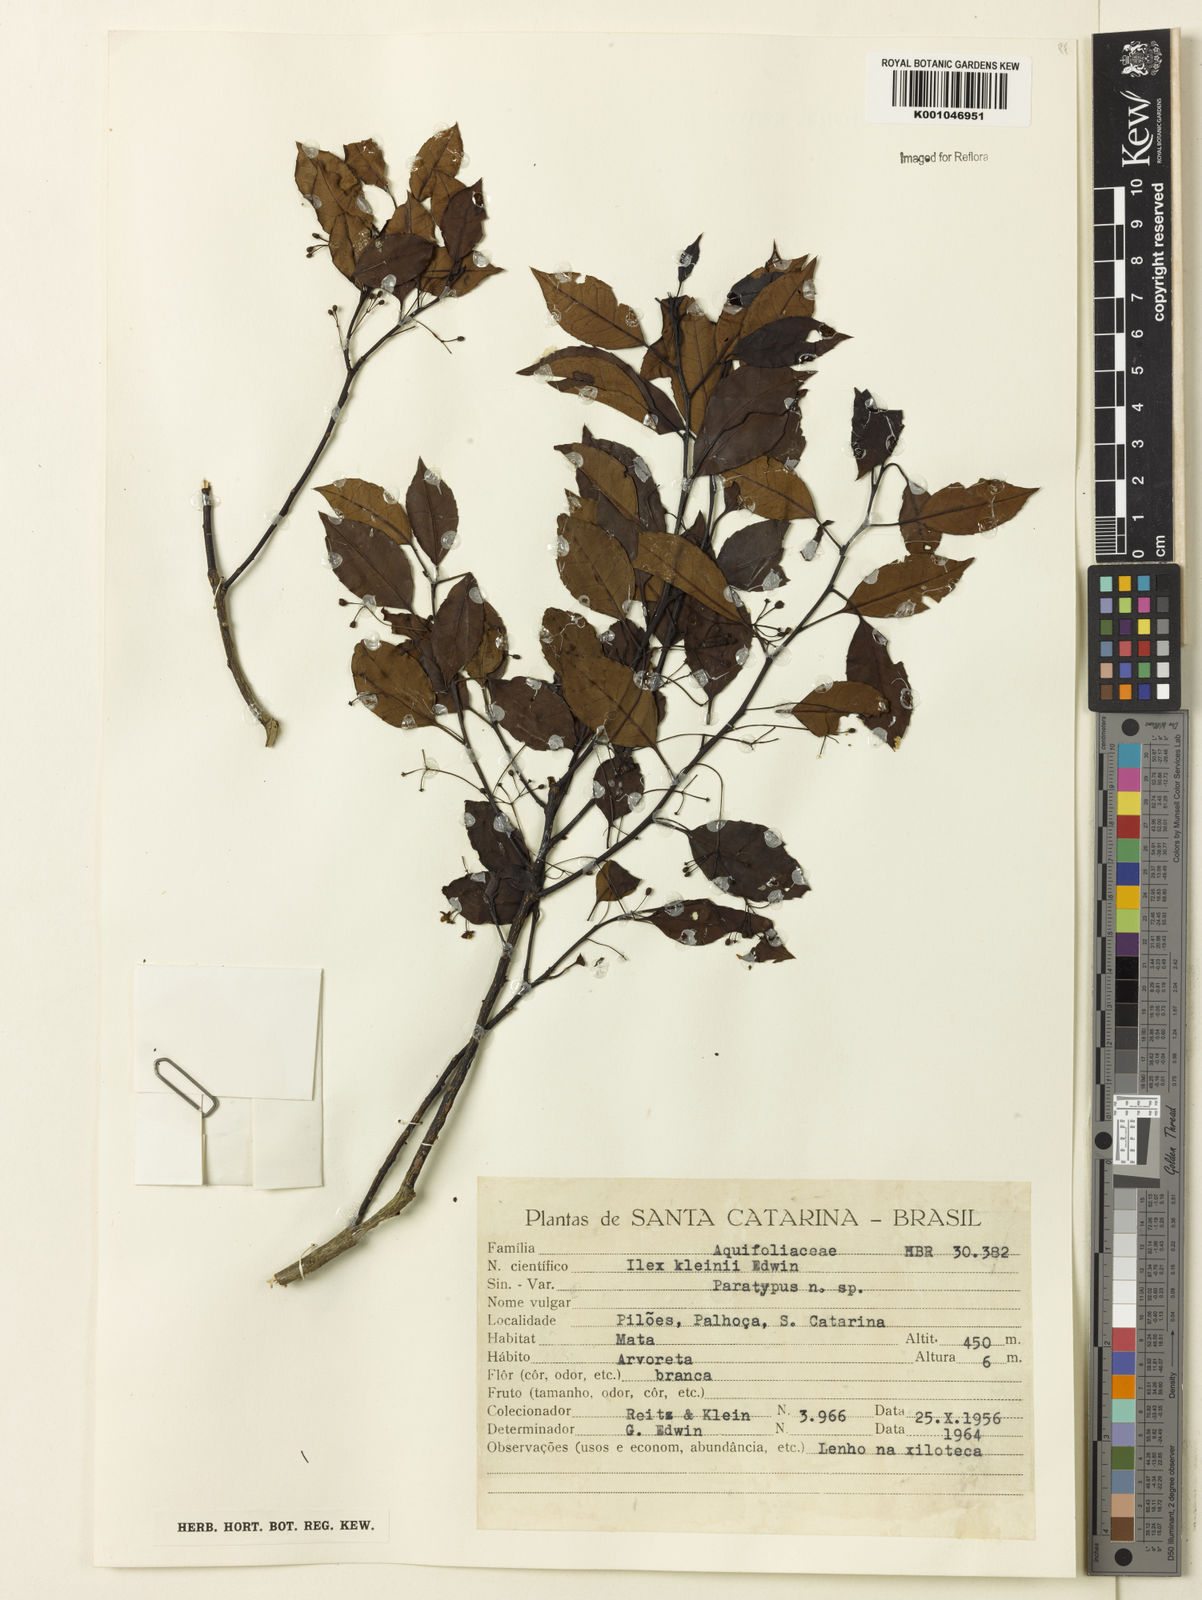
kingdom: Plantae
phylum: Tracheophyta
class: Magnoliopsida
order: Aquifoliales
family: Aquifoliaceae
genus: Ilex
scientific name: Ilex taubertiana
